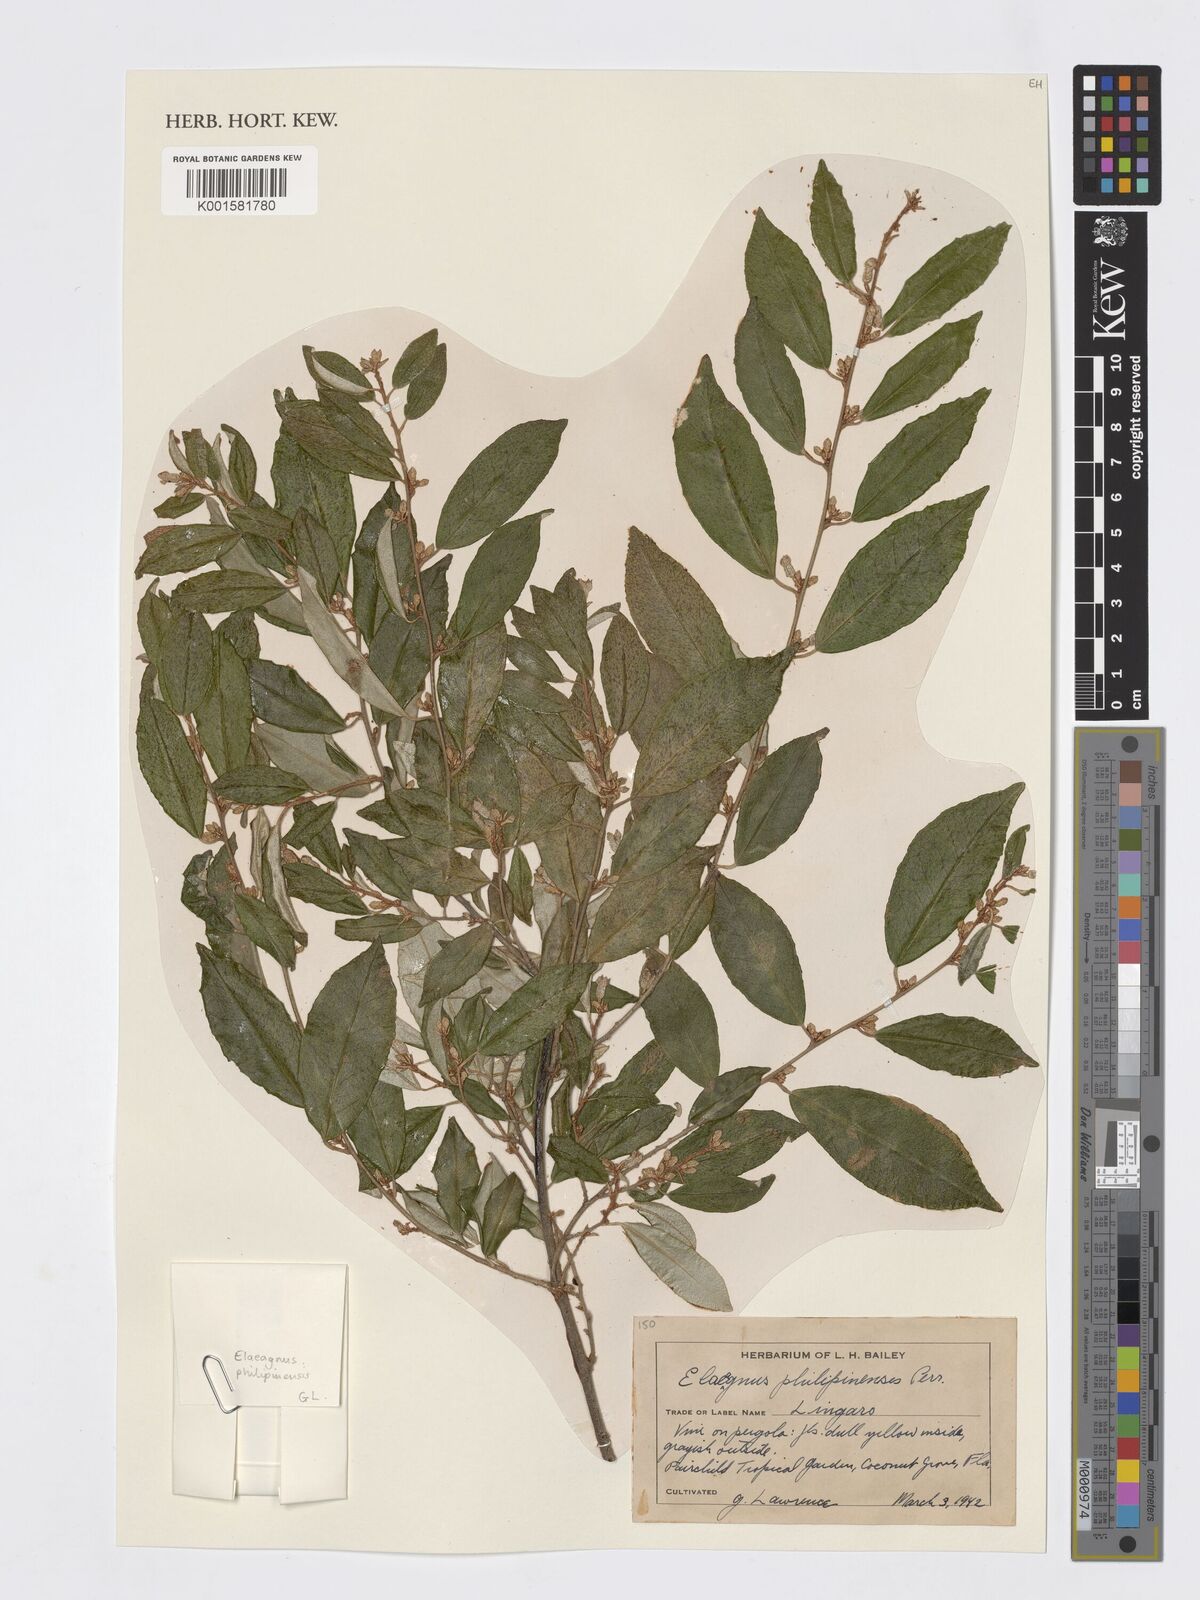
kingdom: Plantae
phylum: Tracheophyta
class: Magnoliopsida
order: Rosales
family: Elaeagnaceae
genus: Elaeagnus
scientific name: Elaeagnus triflora
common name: Millaa millaa-vine
